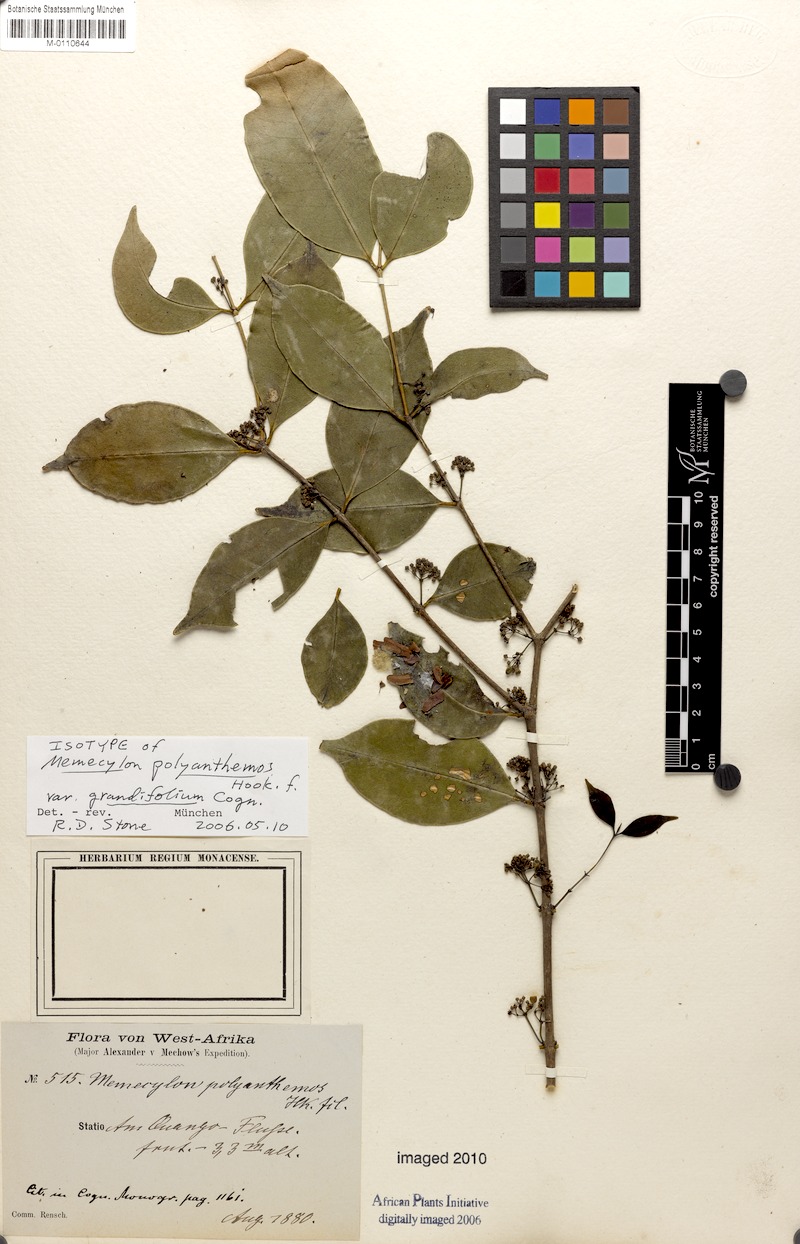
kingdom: Plantae
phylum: Tracheophyta
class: Magnoliopsida
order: Myrtales
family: Melastomataceae
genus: Memecylon
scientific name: Memecylon polyanthemos
